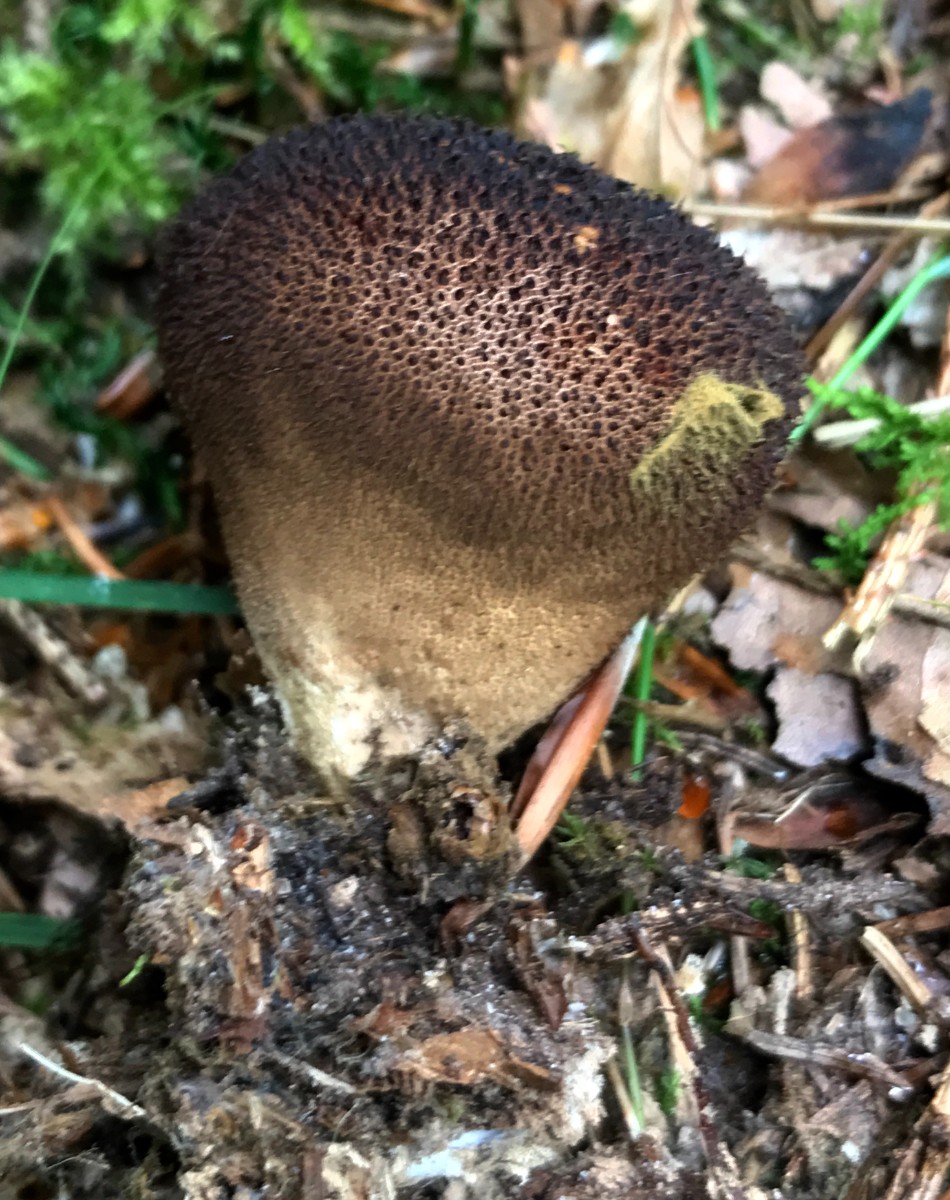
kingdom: Fungi
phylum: Basidiomycota
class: Agaricomycetes
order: Agaricales
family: Lycoperdaceae
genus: Lycoperdon
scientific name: Lycoperdon nigrescens
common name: sortagtig støvbold
